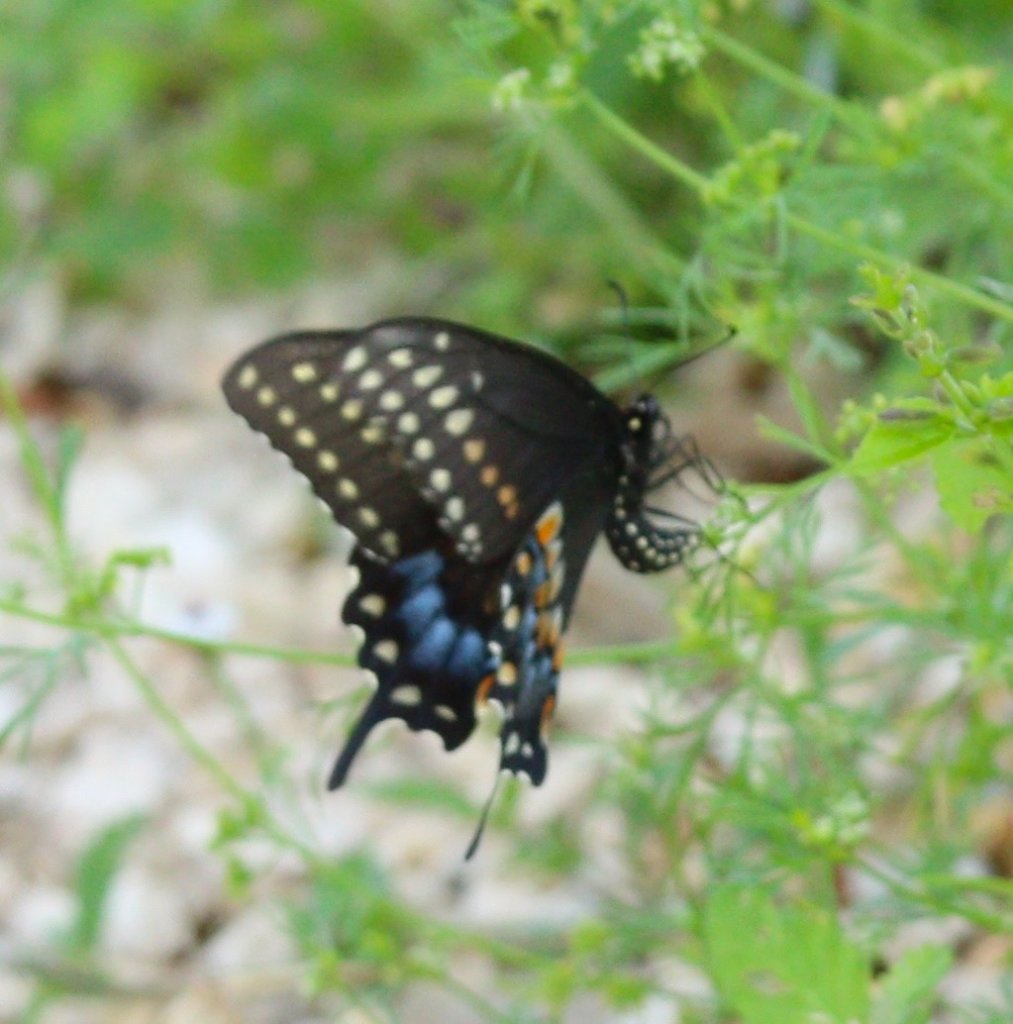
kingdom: Animalia
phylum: Arthropoda
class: Insecta
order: Lepidoptera
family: Papilionidae
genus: Papilio
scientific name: Papilio polyxenes
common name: Black Swallowtail
